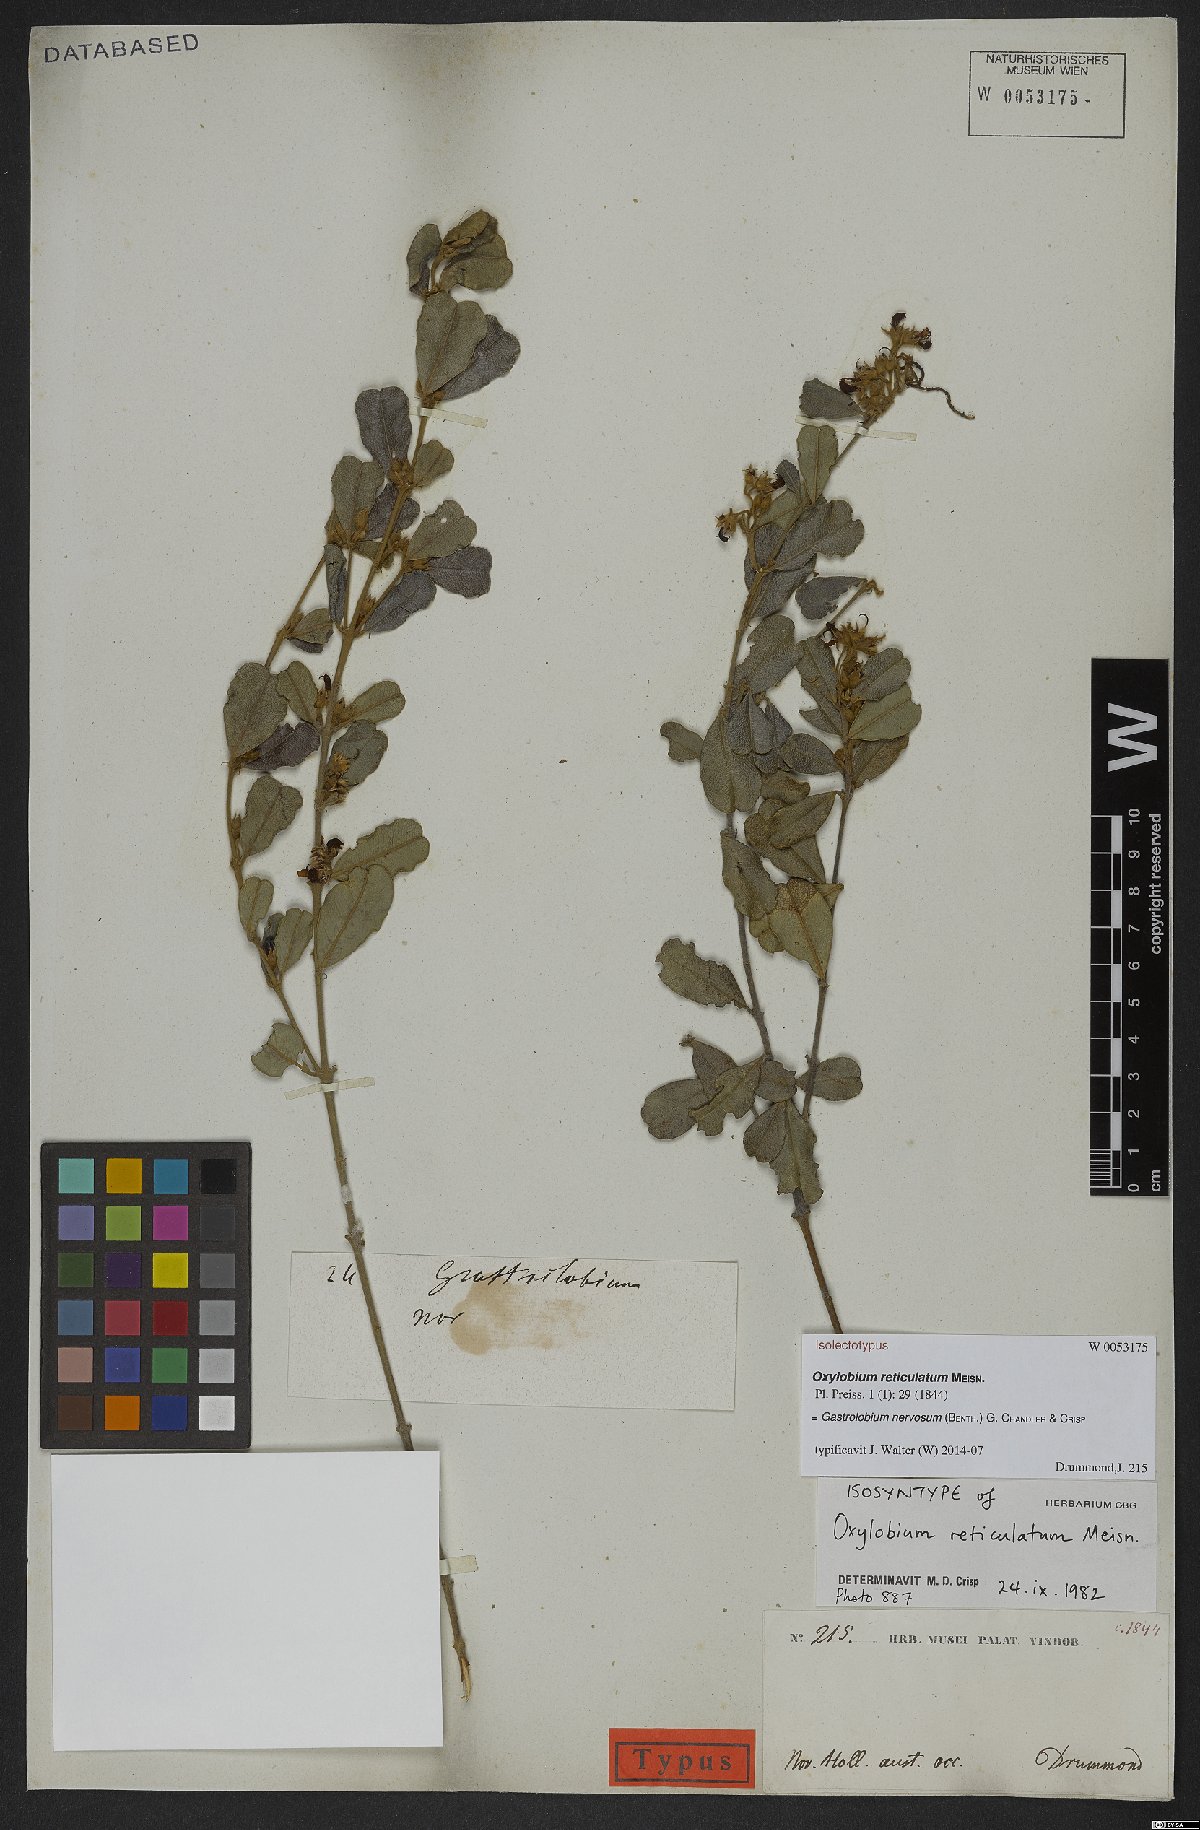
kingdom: Plantae
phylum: Tracheophyta
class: Magnoliopsida
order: Fabales
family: Fabaceae
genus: Gastrolobium
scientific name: Gastrolobium nervosum
